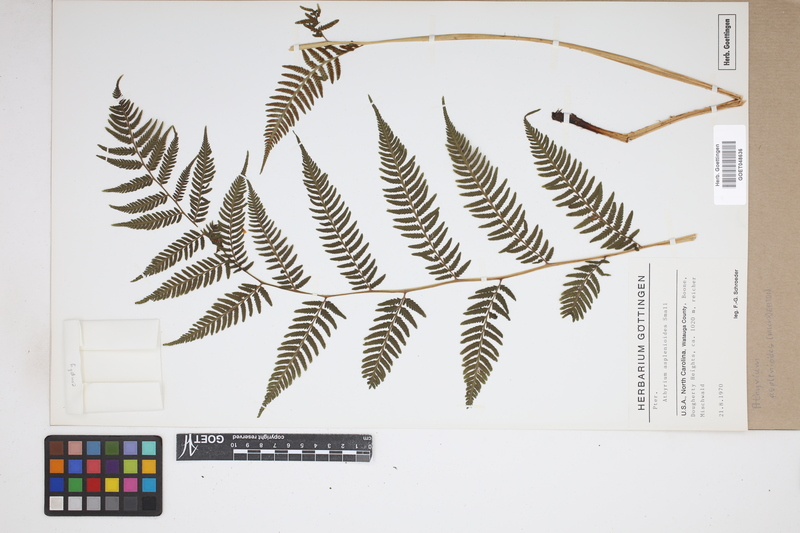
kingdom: Plantae
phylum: Tracheophyta
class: Polypodiopsida
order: Polypodiales
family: Athyriaceae
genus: Athyrium
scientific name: Athyrium asplenioides
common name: Southern lady fern
